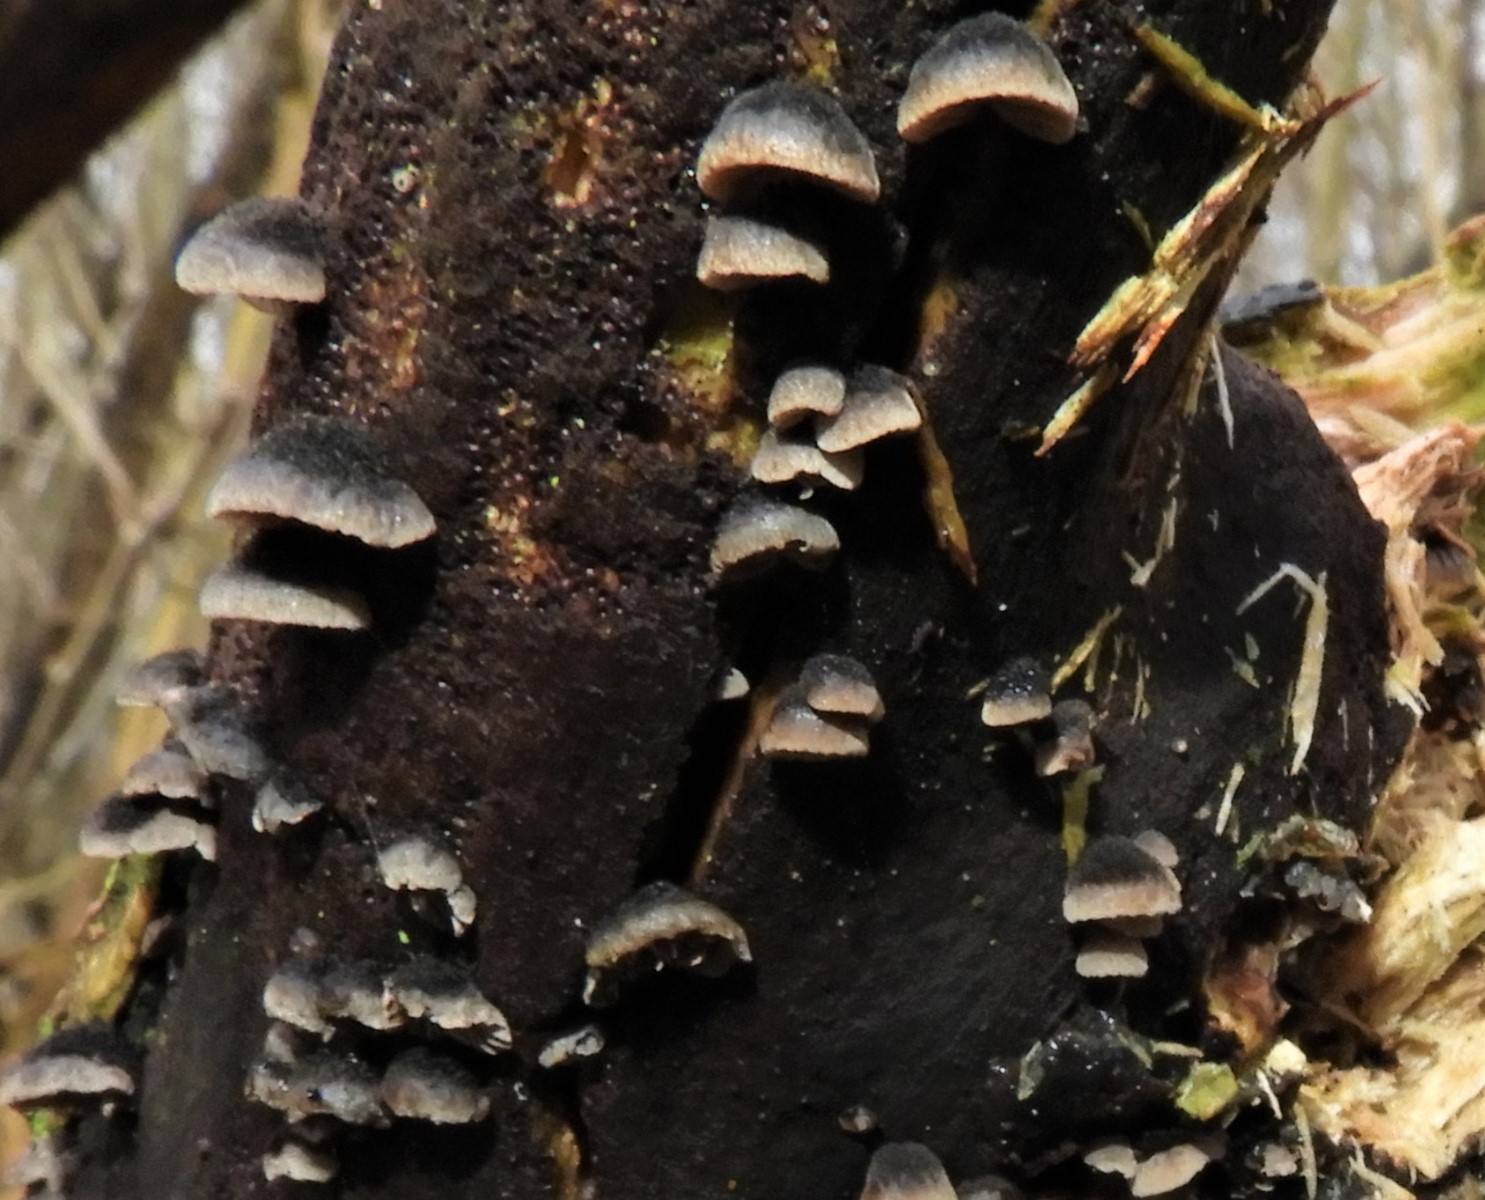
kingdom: Fungi
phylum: Basidiomycota
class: Agaricomycetes
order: Agaricales
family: Pleurotaceae
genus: Resupinatus
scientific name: Resupinatus trichotis
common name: mørkfiltet barkhat
